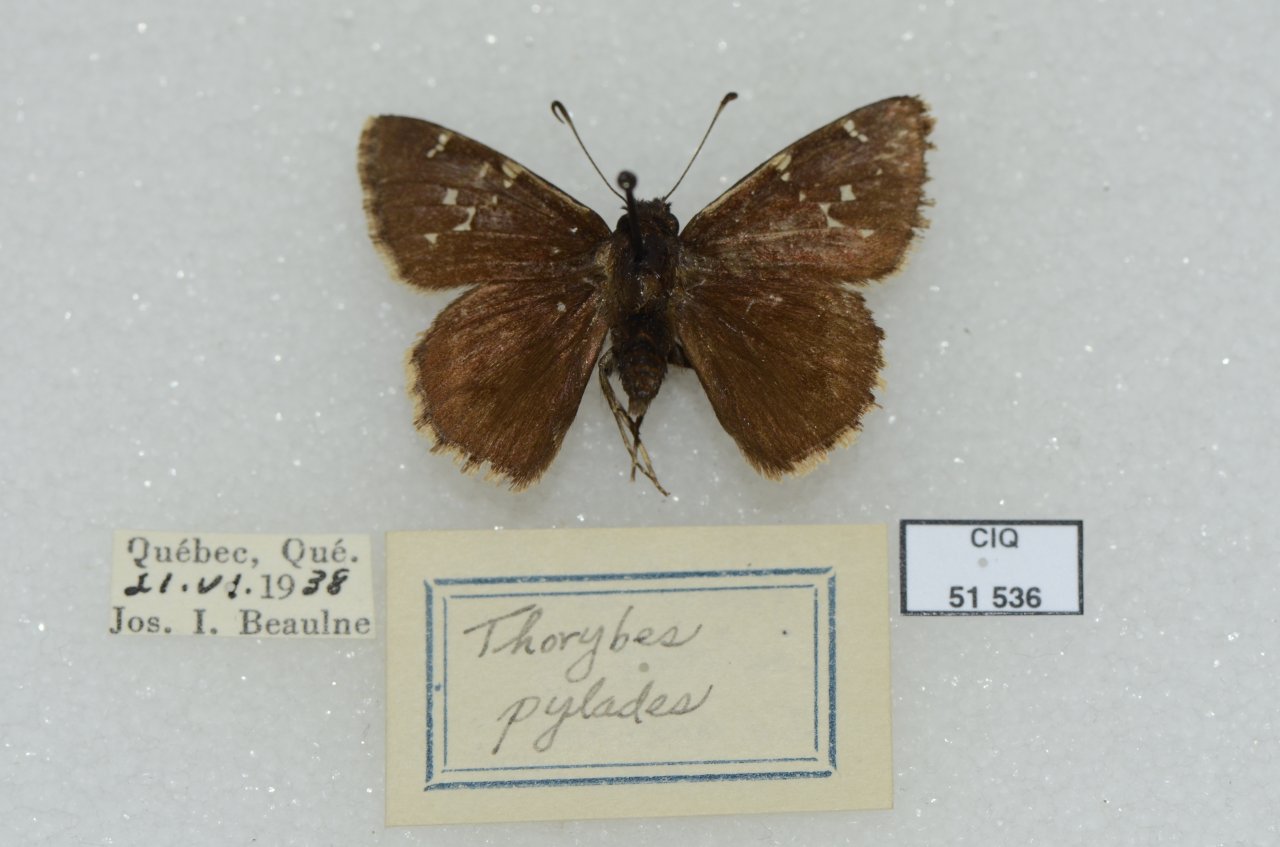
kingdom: Animalia
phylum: Arthropoda
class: Insecta
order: Lepidoptera
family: Hesperiidae
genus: Autochton
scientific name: Autochton
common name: Northern Cloudywing
